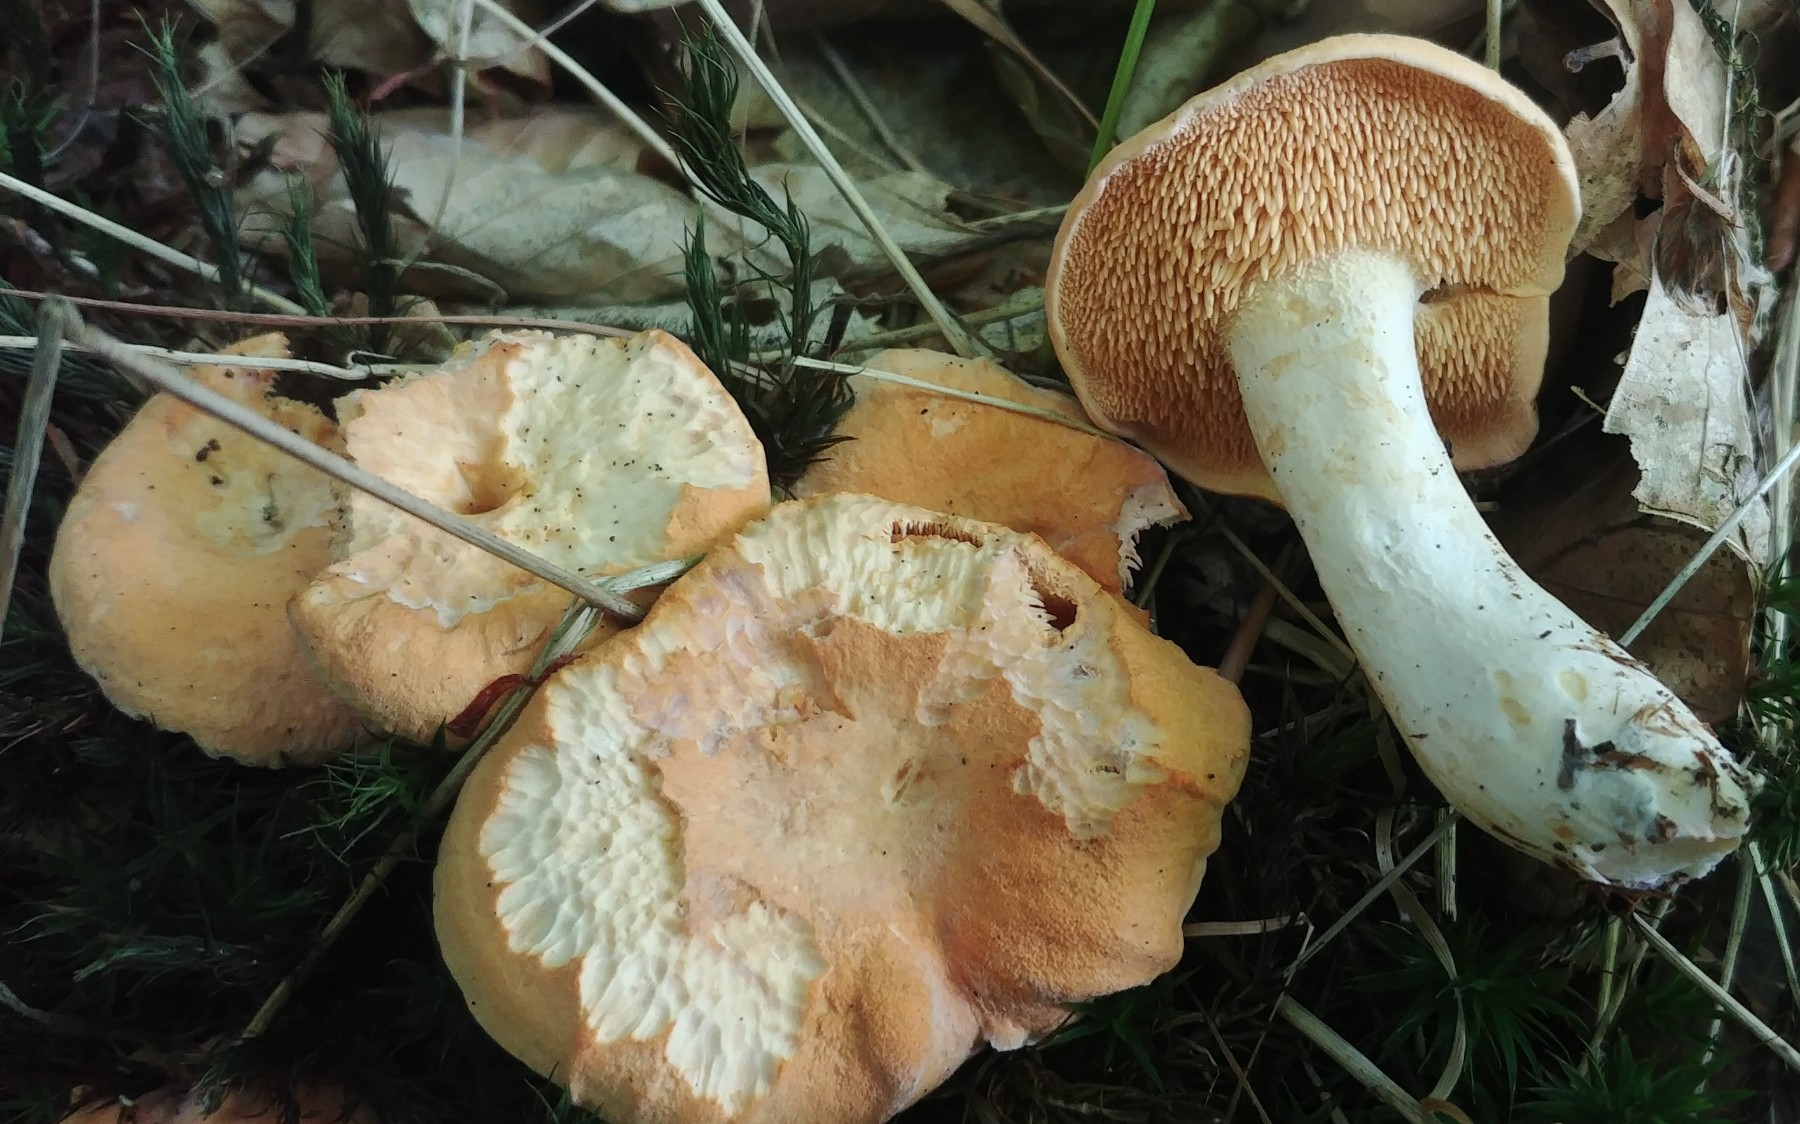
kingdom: Fungi
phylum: Basidiomycota
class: Agaricomycetes
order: Cantharellales
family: Hydnaceae
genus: Hydnum
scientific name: Hydnum ellipsosporum
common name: tandet pigsvamp
